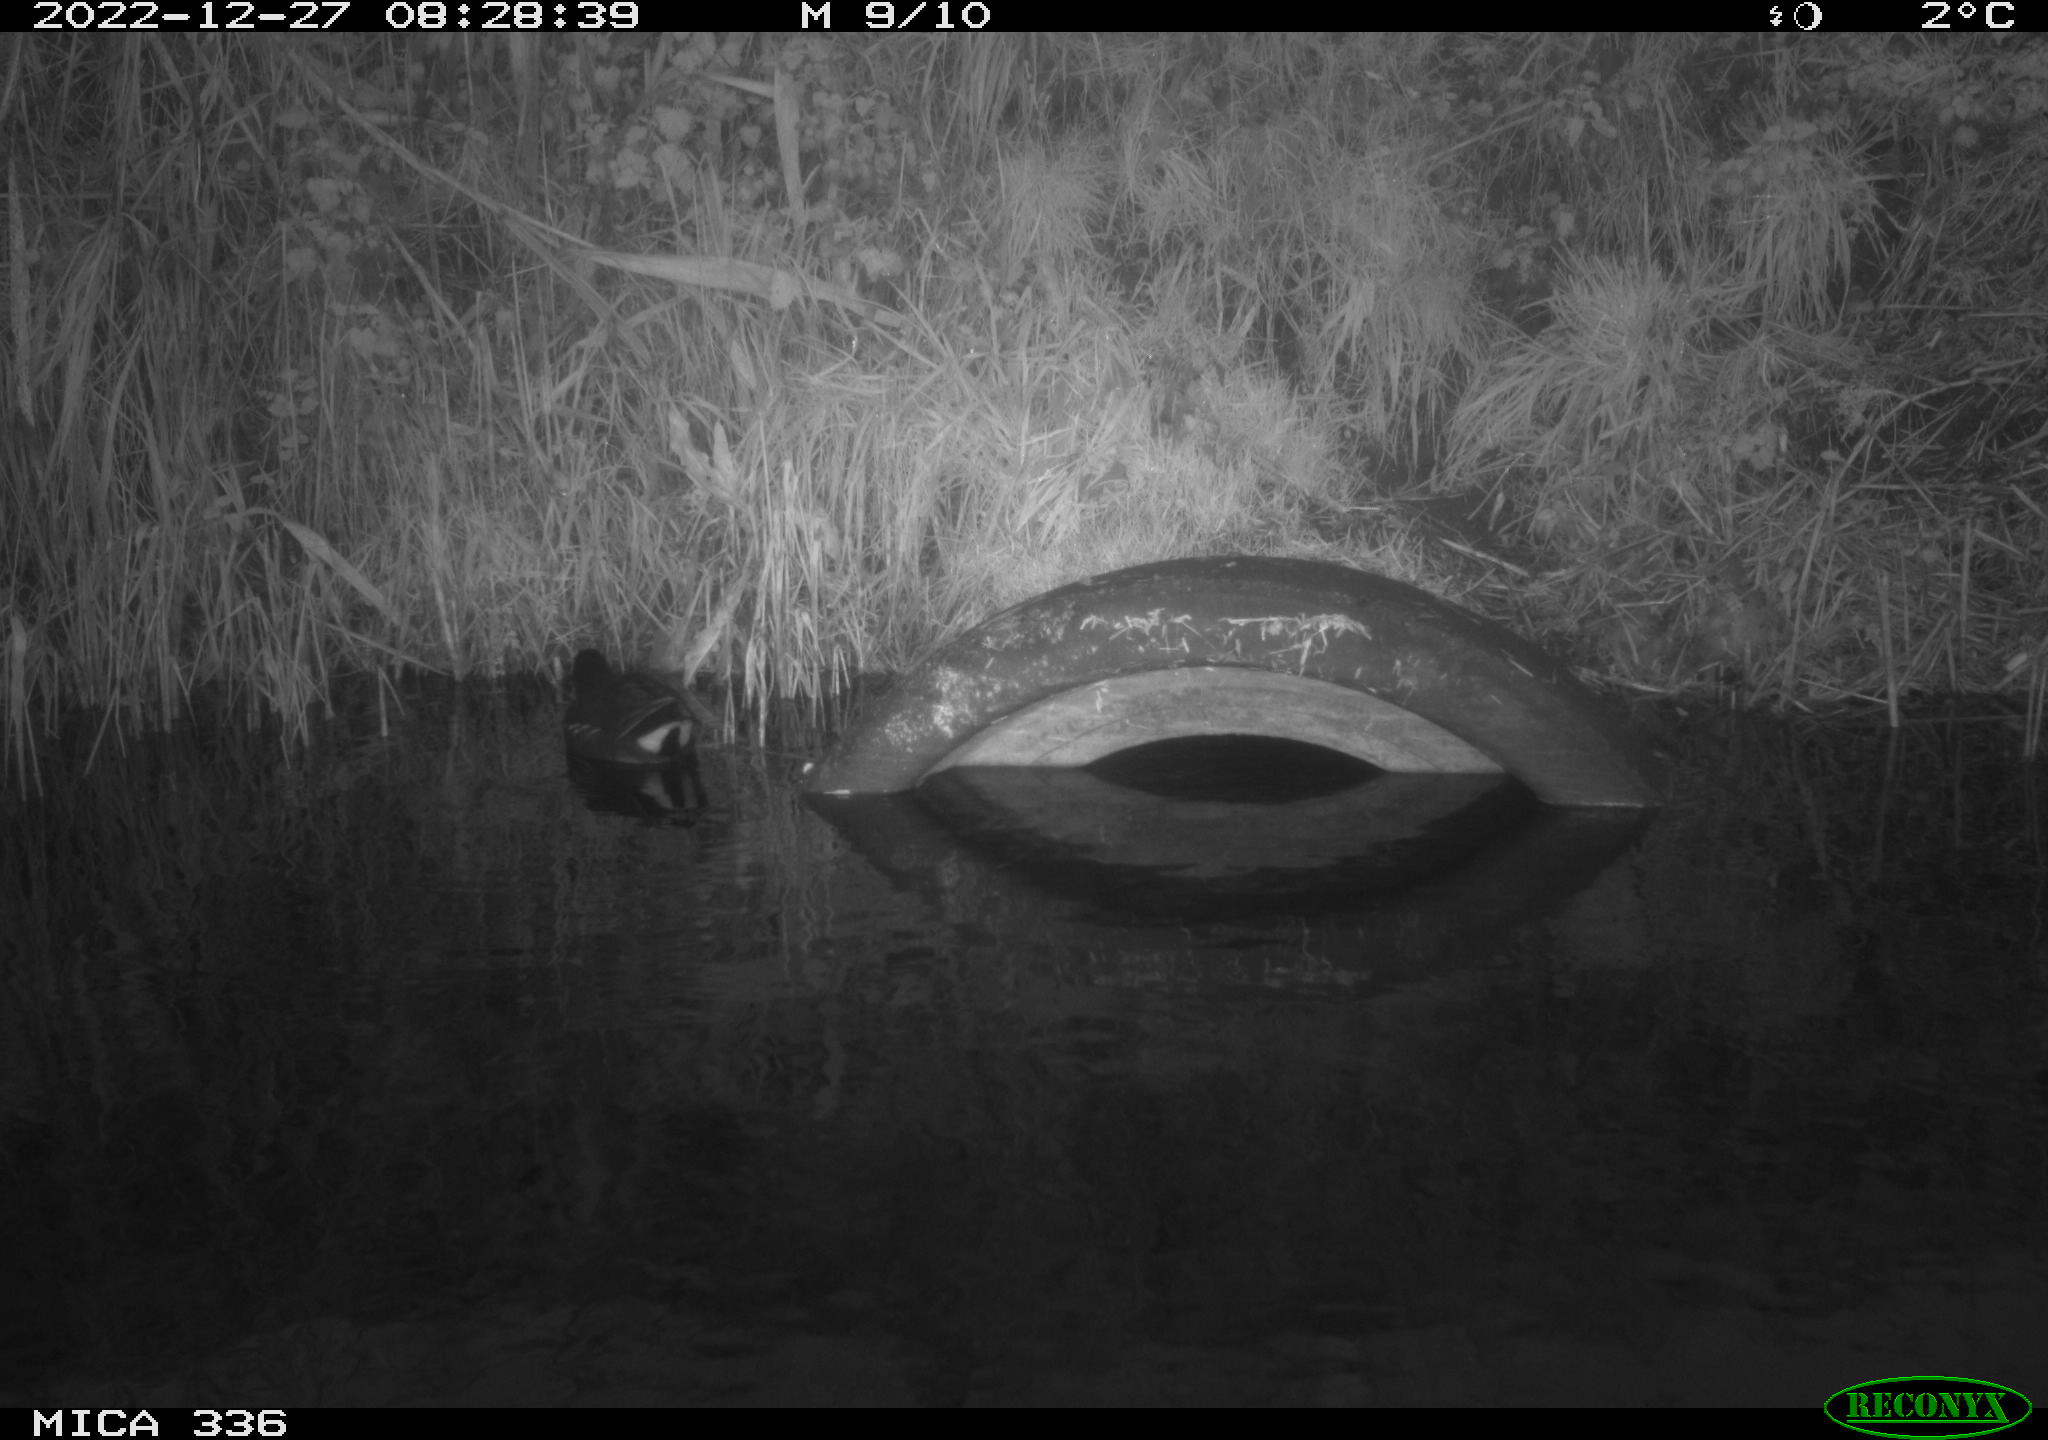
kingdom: Animalia
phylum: Chordata
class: Aves
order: Gruiformes
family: Rallidae
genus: Gallinula
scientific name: Gallinula chloropus
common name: Common moorhen
